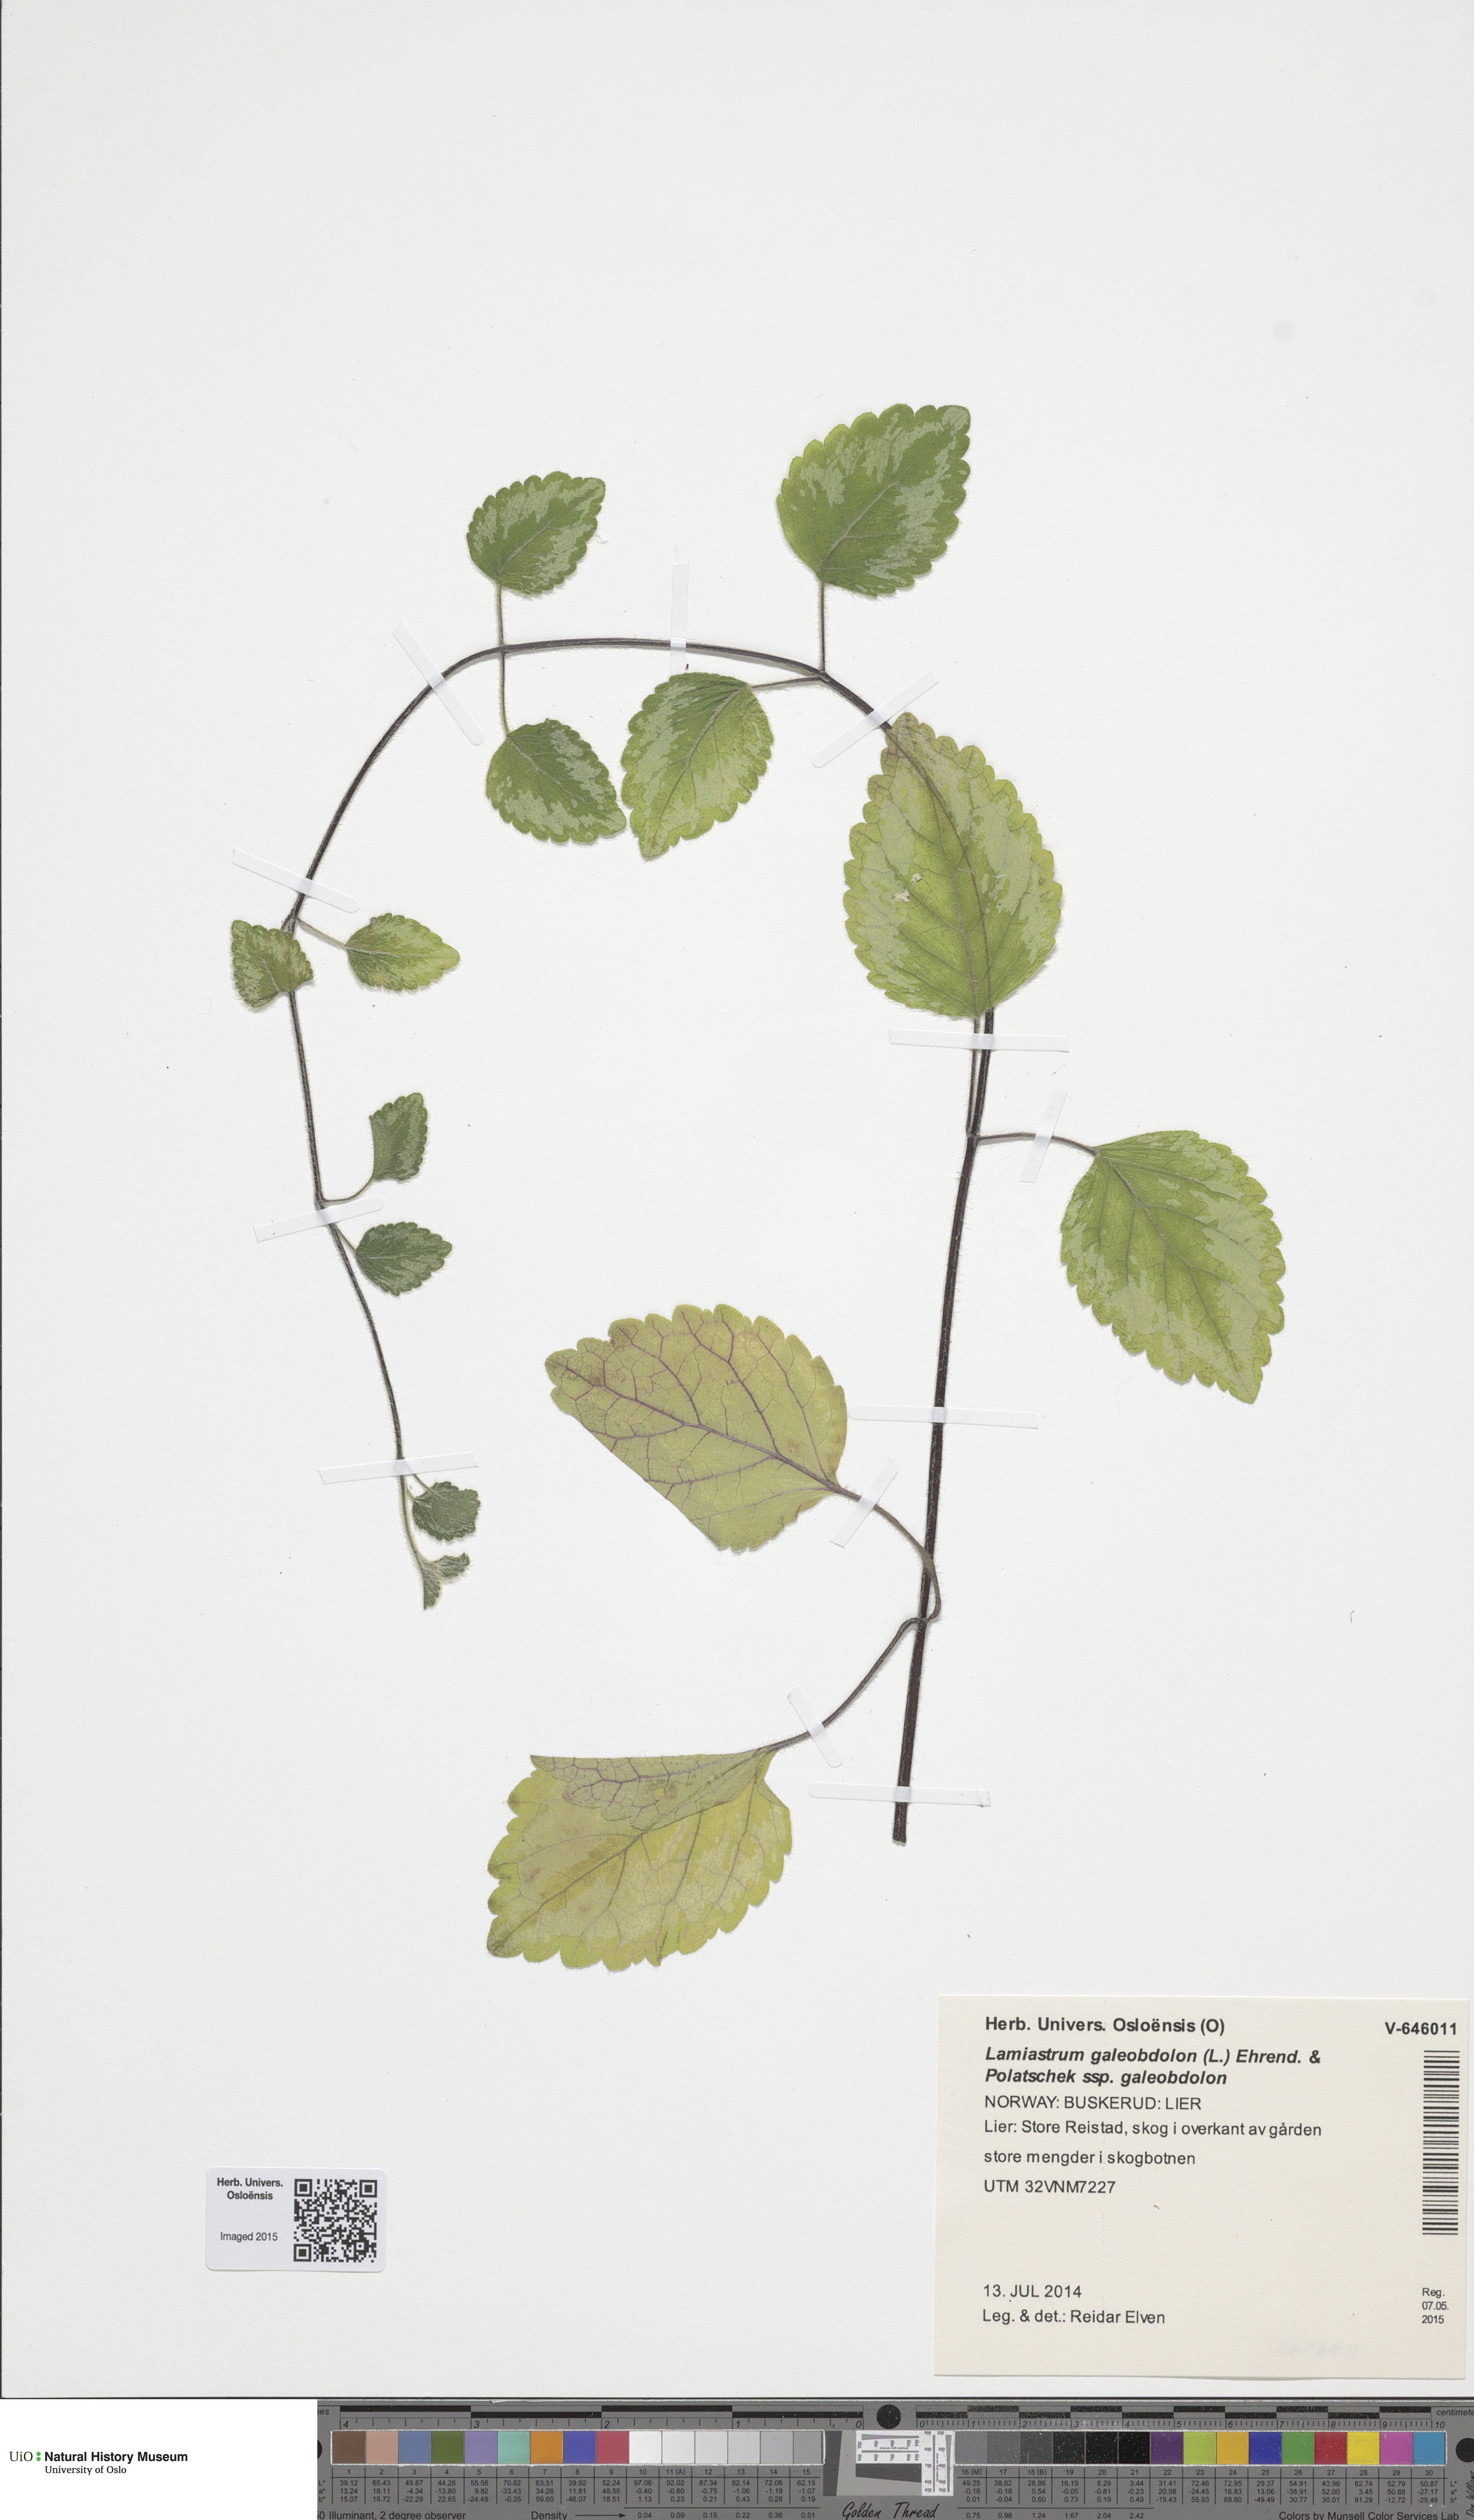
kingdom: Plantae
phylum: Tracheophyta
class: Magnoliopsida
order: Lamiales
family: Lamiaceae
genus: Lamium
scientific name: Lamium galeobdolon
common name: Yellow archangel
